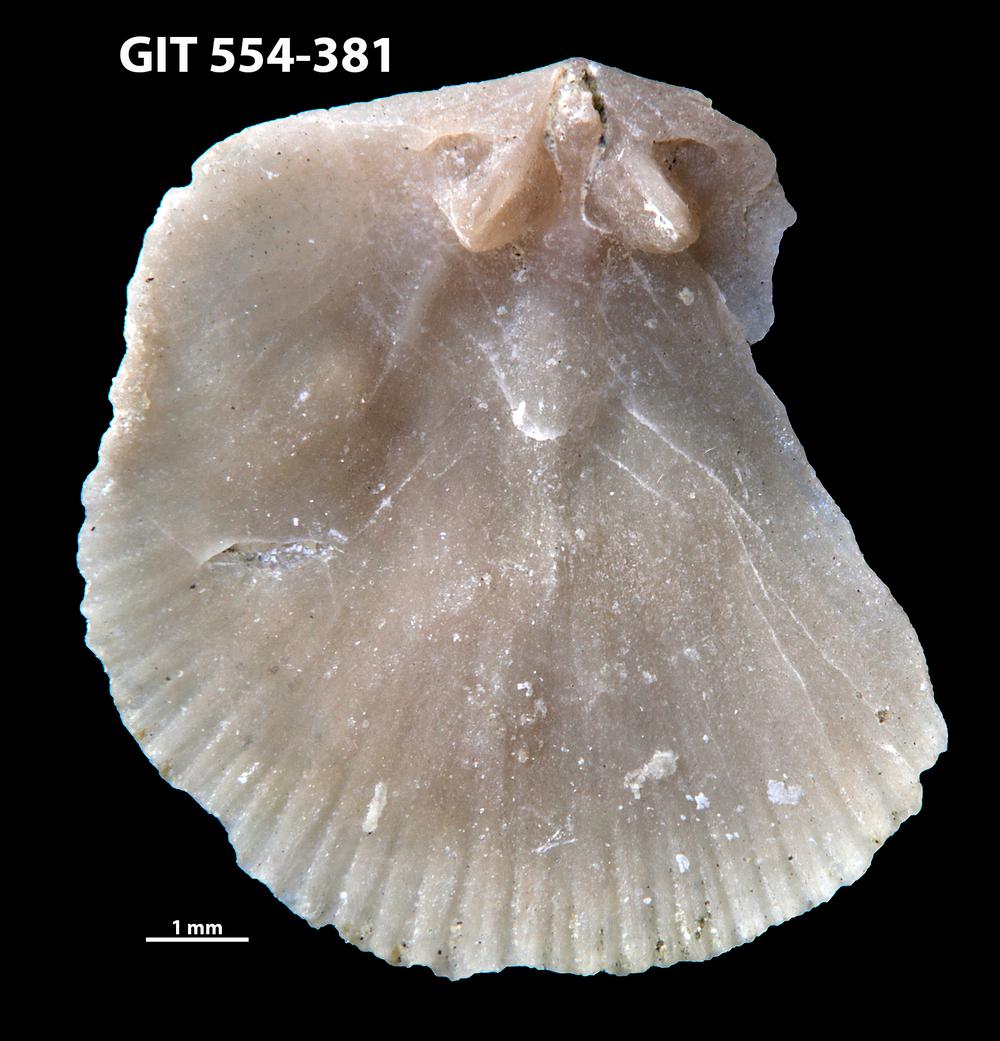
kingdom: Animalia
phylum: Brachiopoda
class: Rhynchonellata
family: Dalmanellidae
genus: Isorthis
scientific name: Isorthis Onniella mediocra
